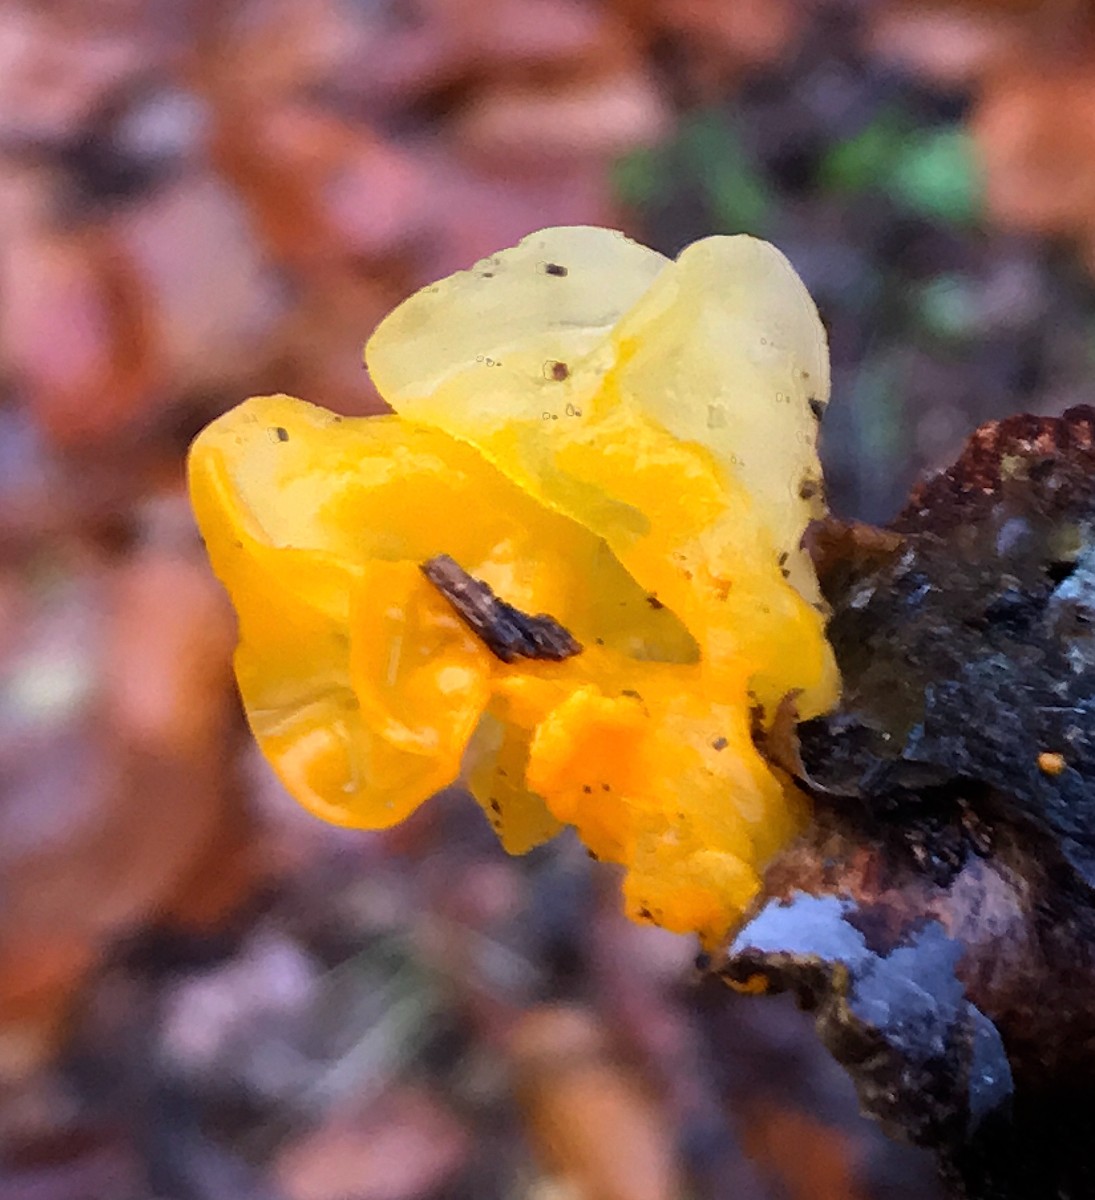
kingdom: Fungi
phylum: Basidiomycota
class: Tremellomycetes
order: Tremellales
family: Tremellaceae
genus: Tremella
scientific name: Tremella mesenterica
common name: gul bævresvamp
